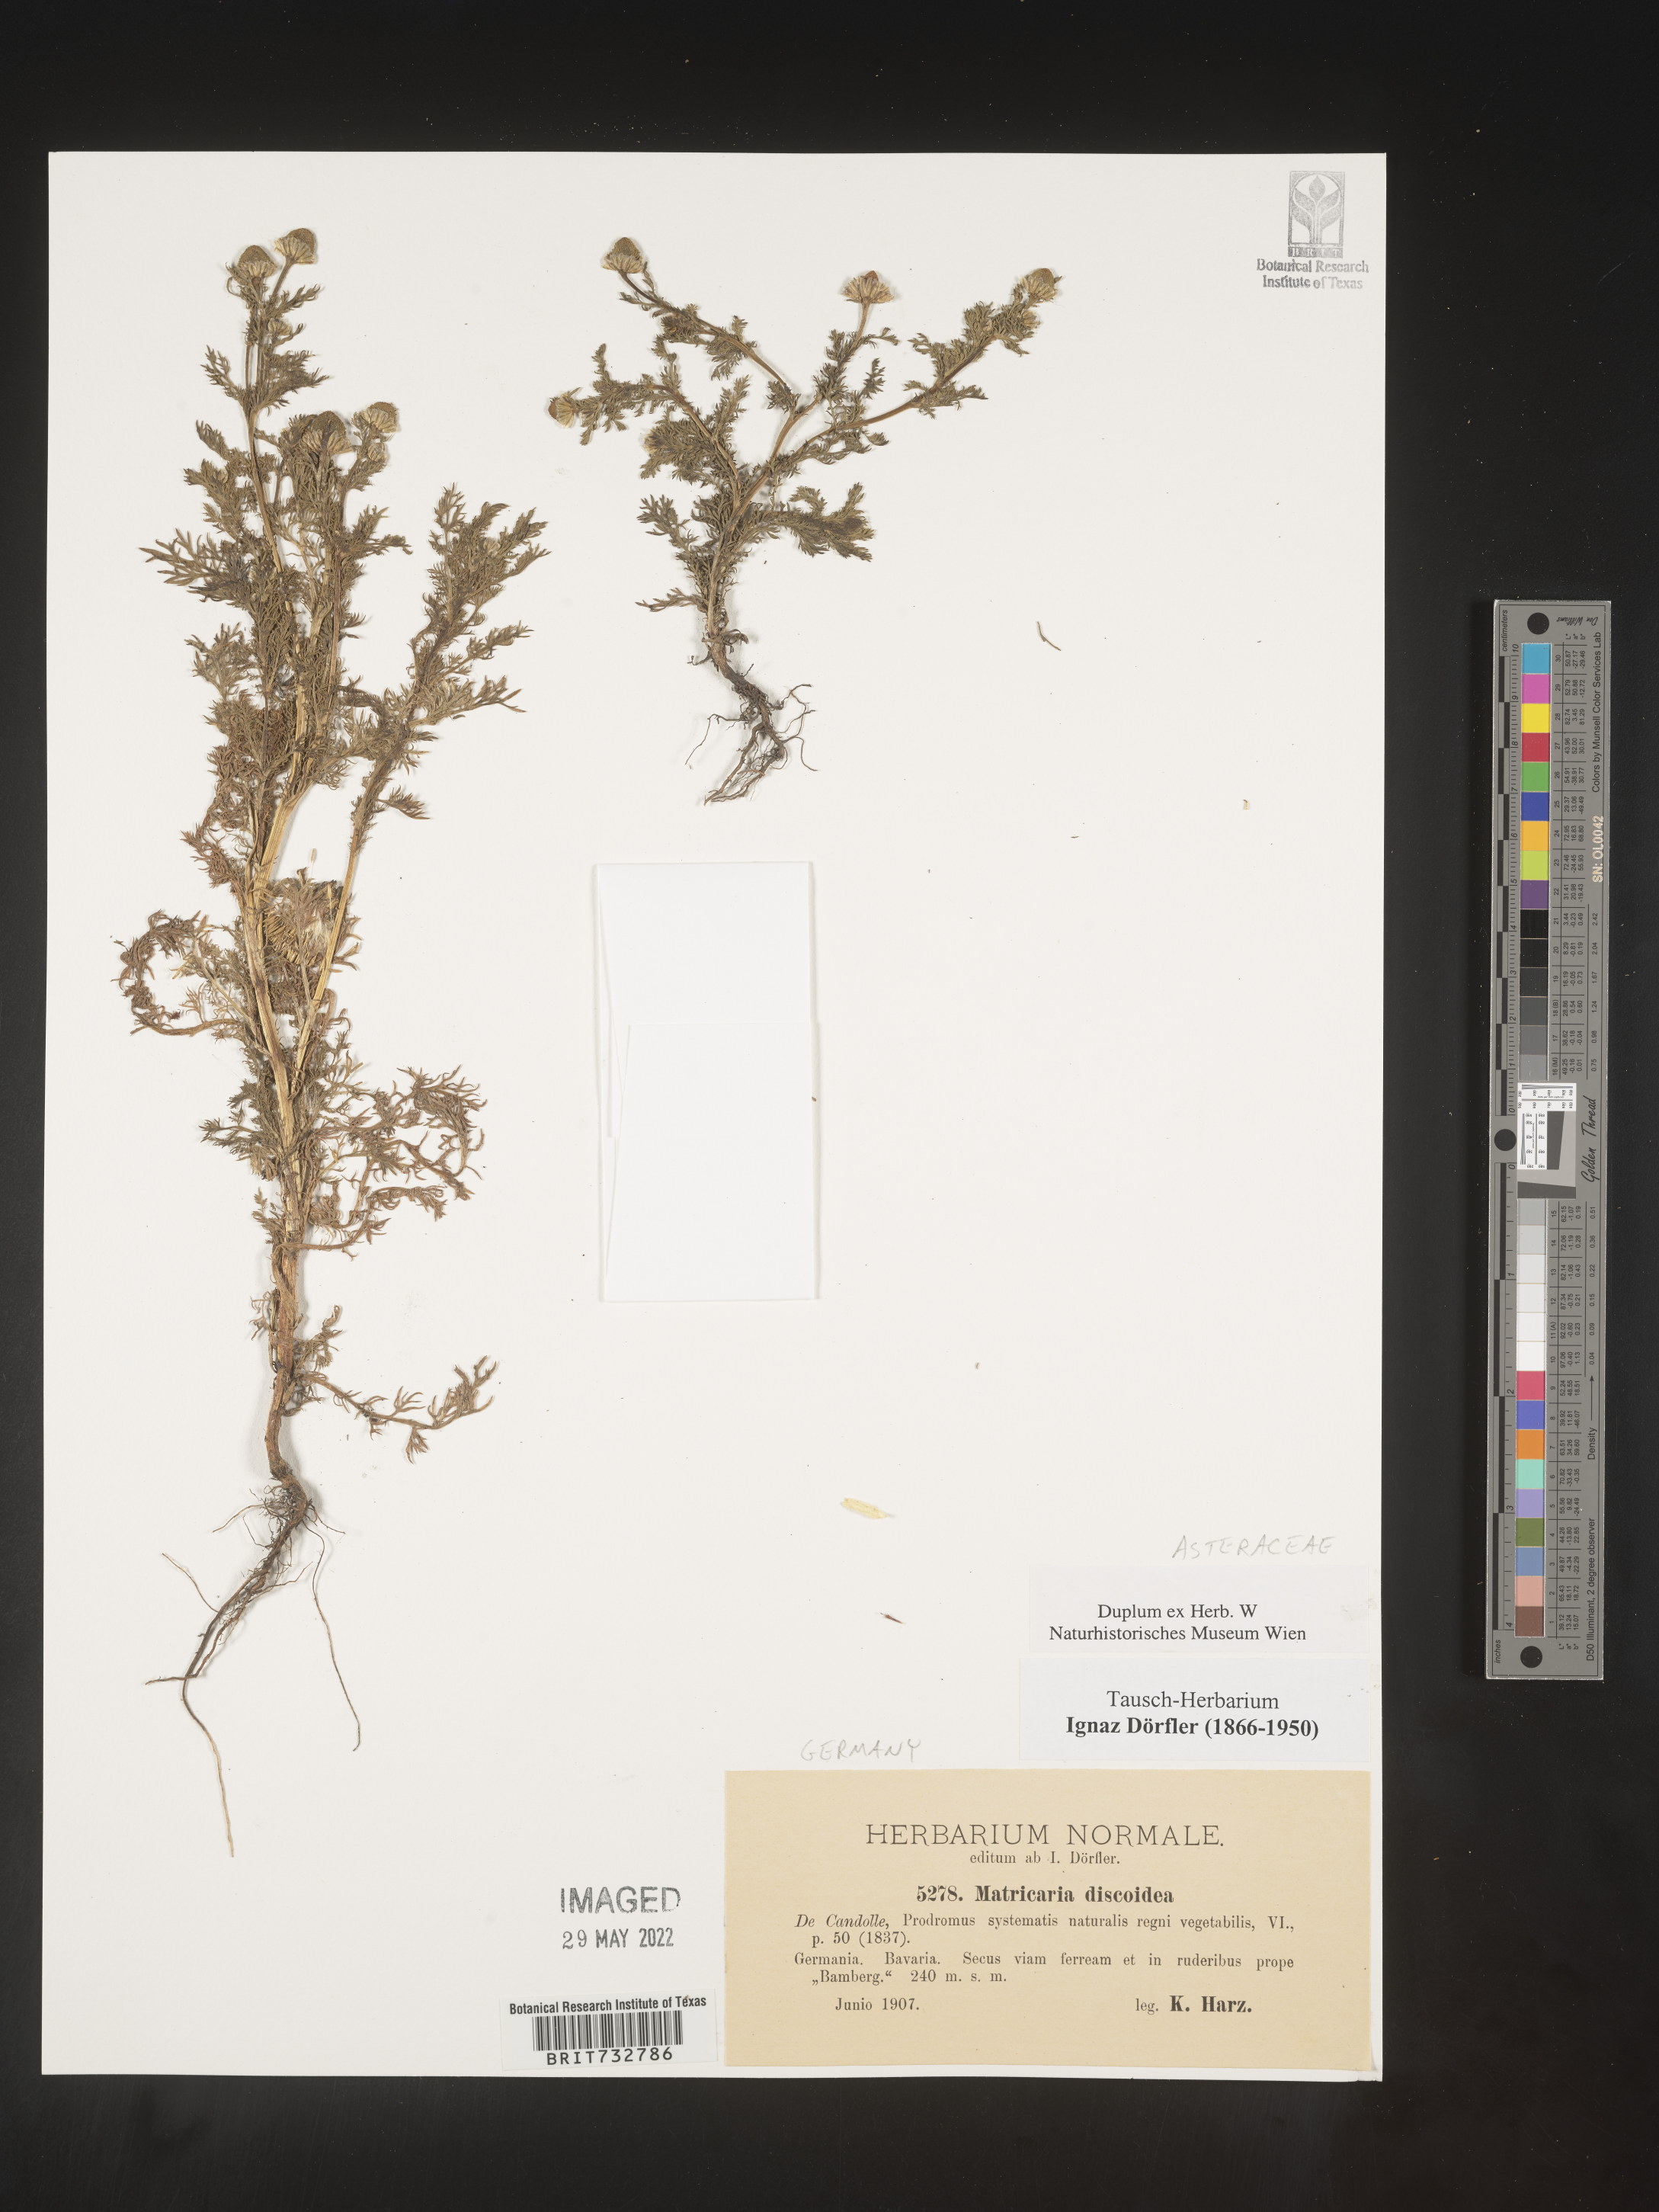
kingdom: Plantae
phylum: Tracheophyta
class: Magnoliopsida
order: Asterales
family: Asteraceae
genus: Matricaria
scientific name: Matricaria
